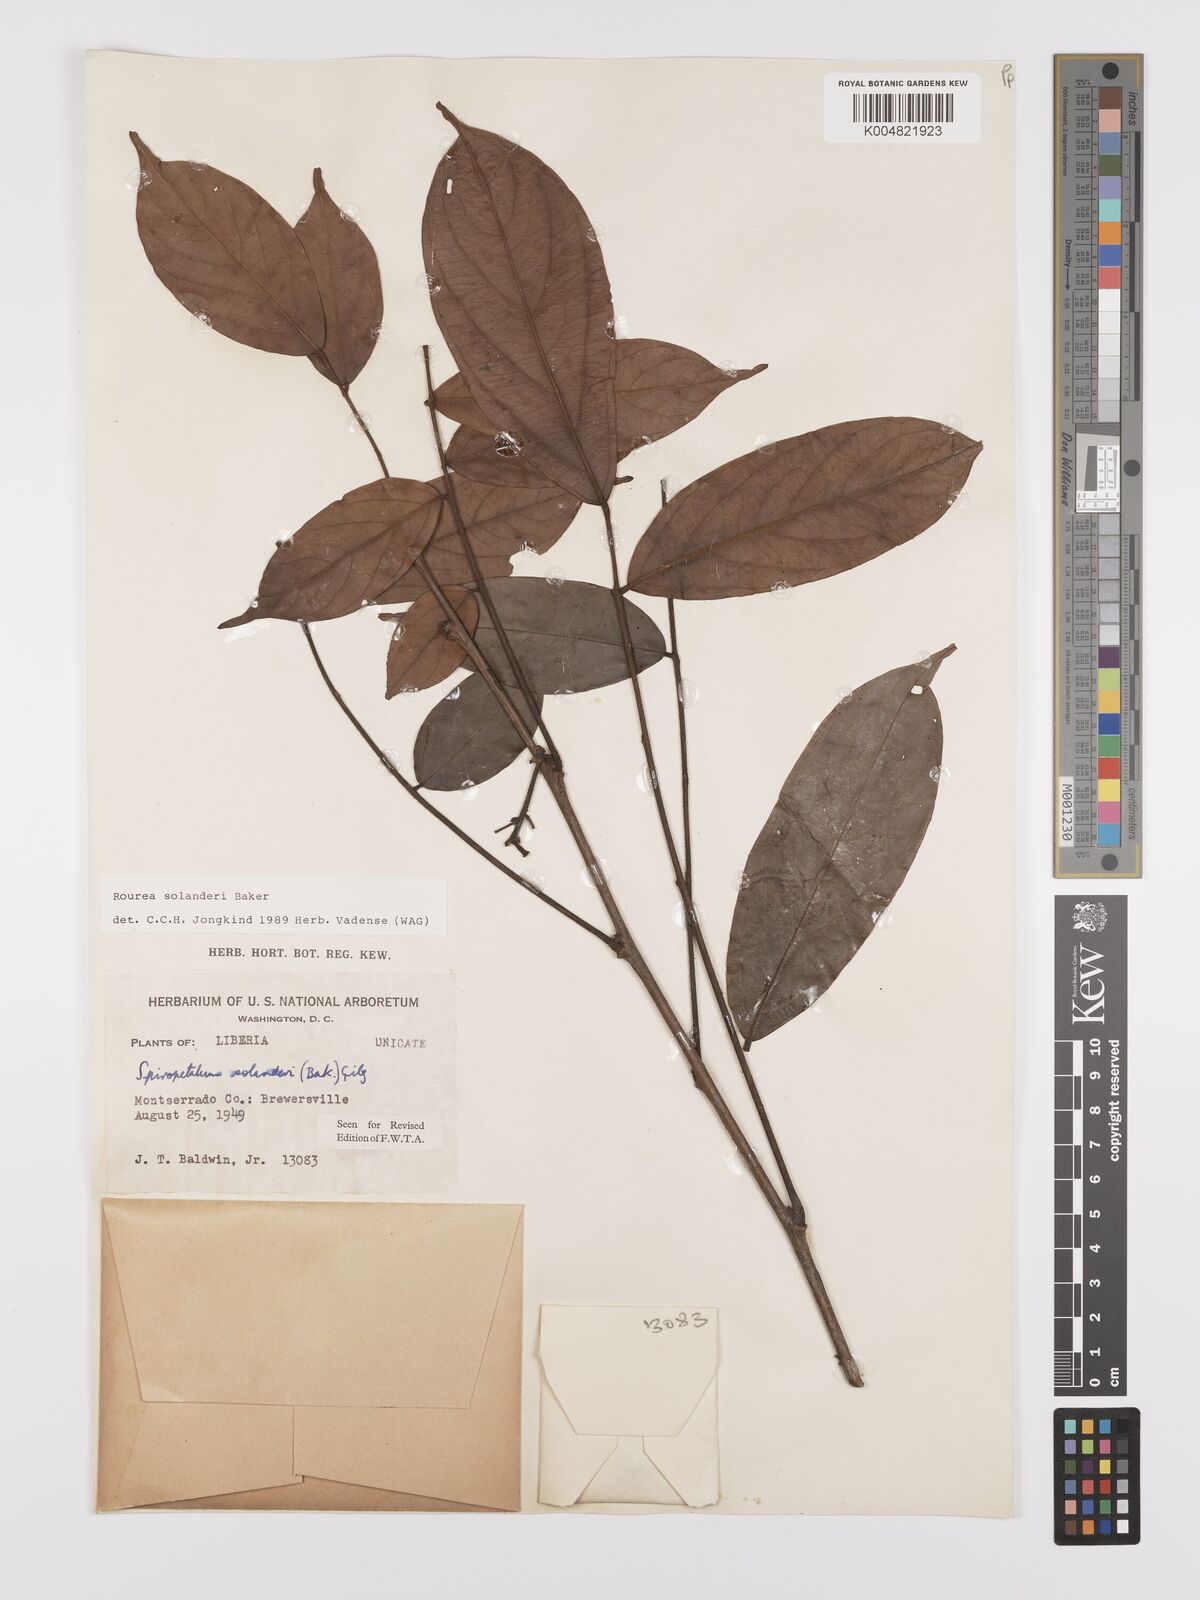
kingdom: Plantae
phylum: Tracheophyta
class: Magnoliopsida
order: Oxalidales
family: Connaraceae
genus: Rourea
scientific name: Rourea solanderi
